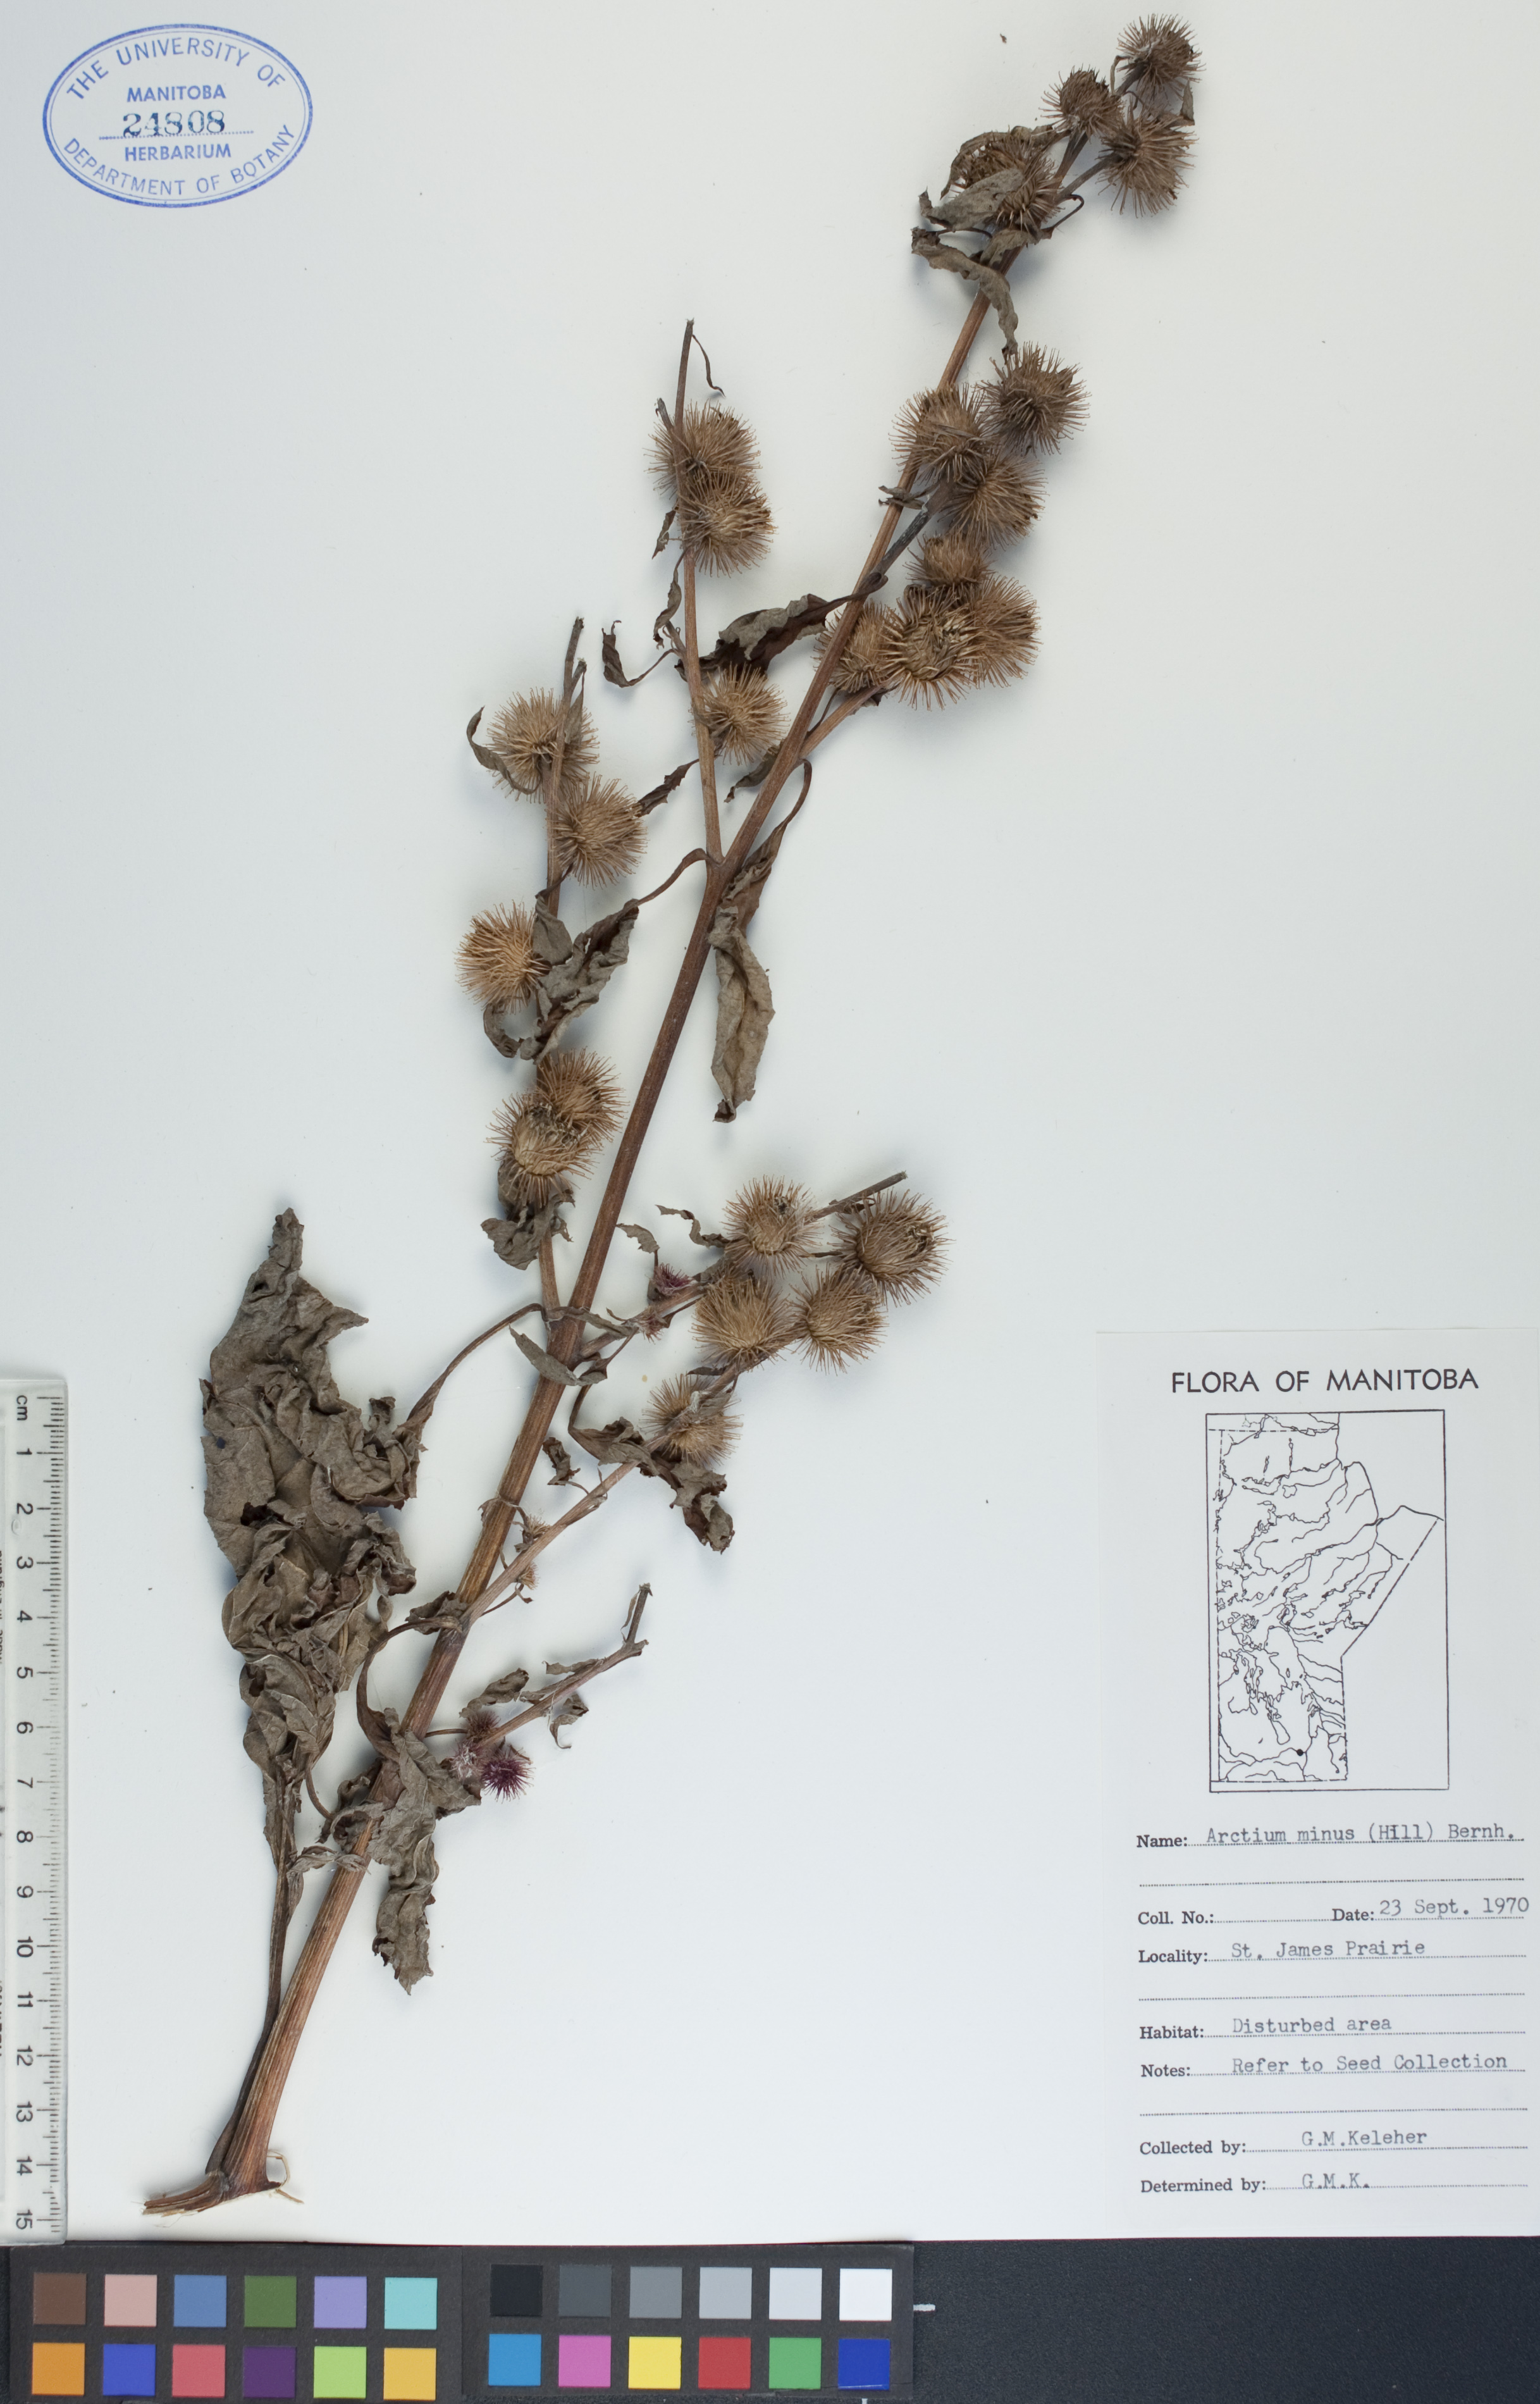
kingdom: Plantae
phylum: Tracheophyta
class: Magnoliopsida
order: Asterales
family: Asteraceae
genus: Arctium
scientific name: Arctium minus
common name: Lesser burdock
